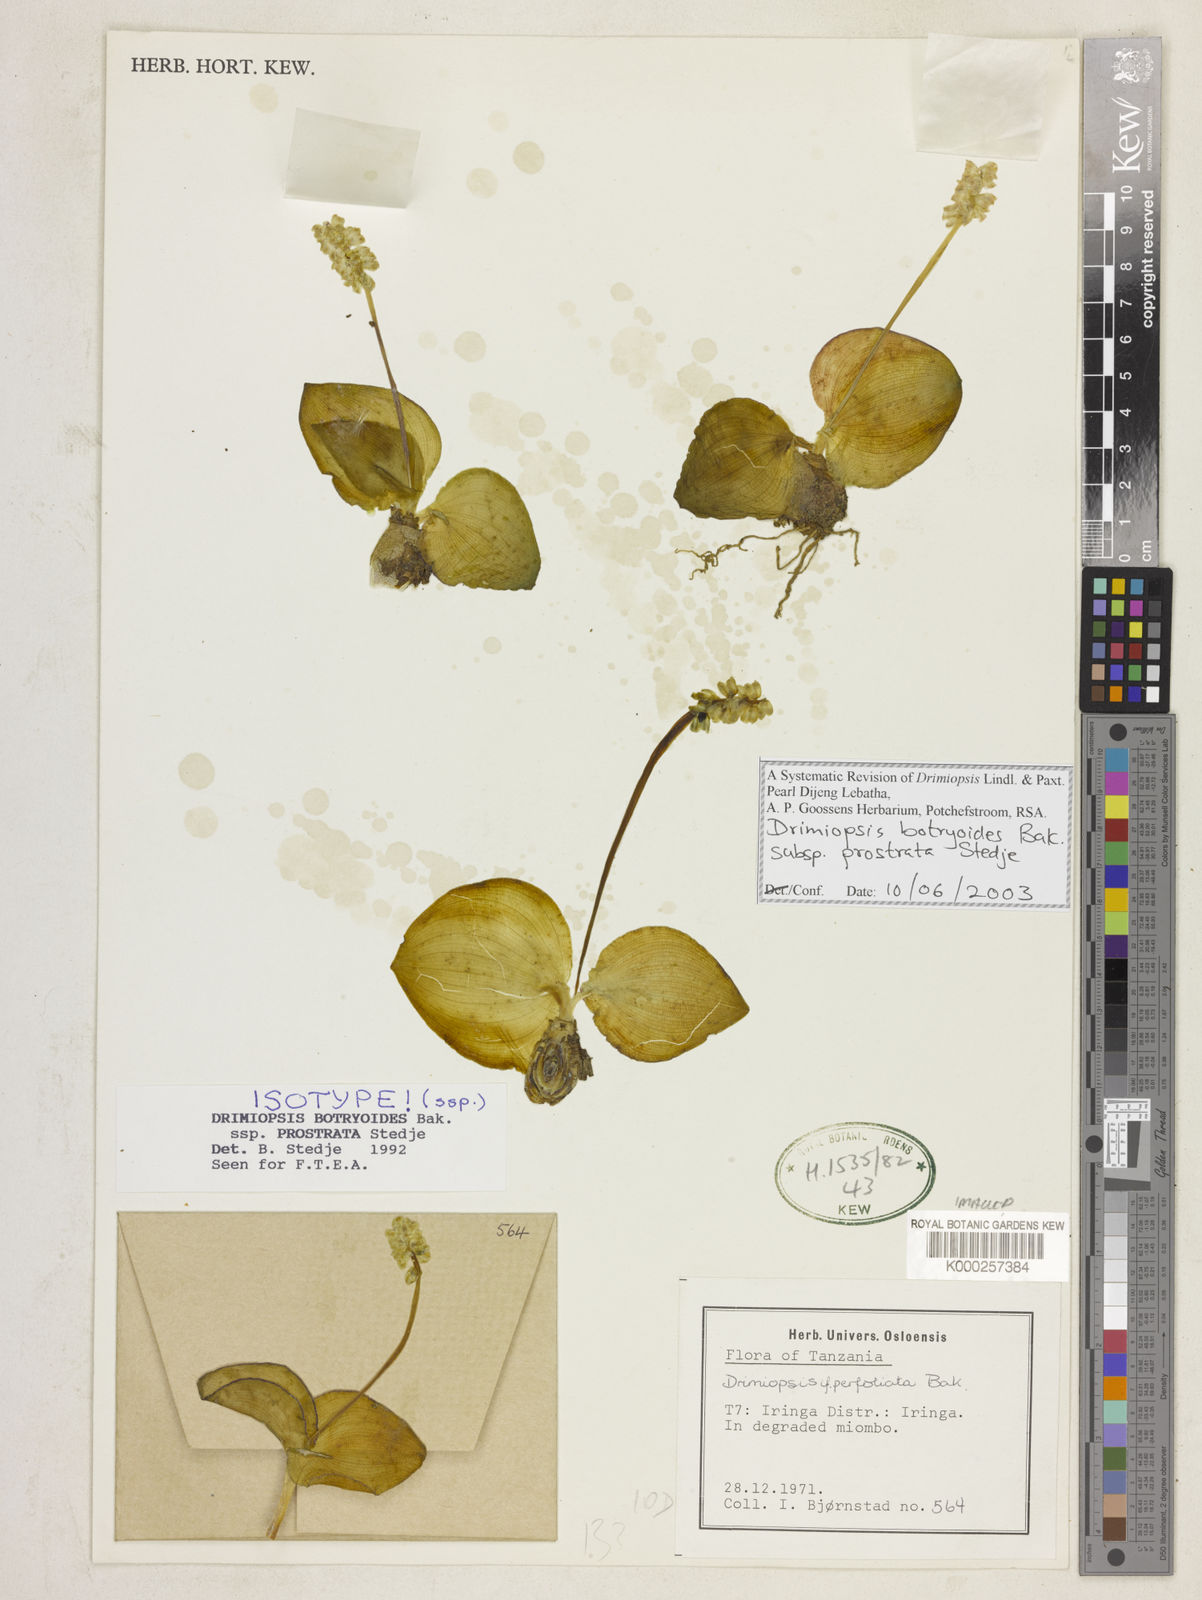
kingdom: Plantae
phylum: Tracheophyta
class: Liliopsida
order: Asparagales
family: Asparagaceae
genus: Drimiopsis
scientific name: Drimiopsis botryoides
